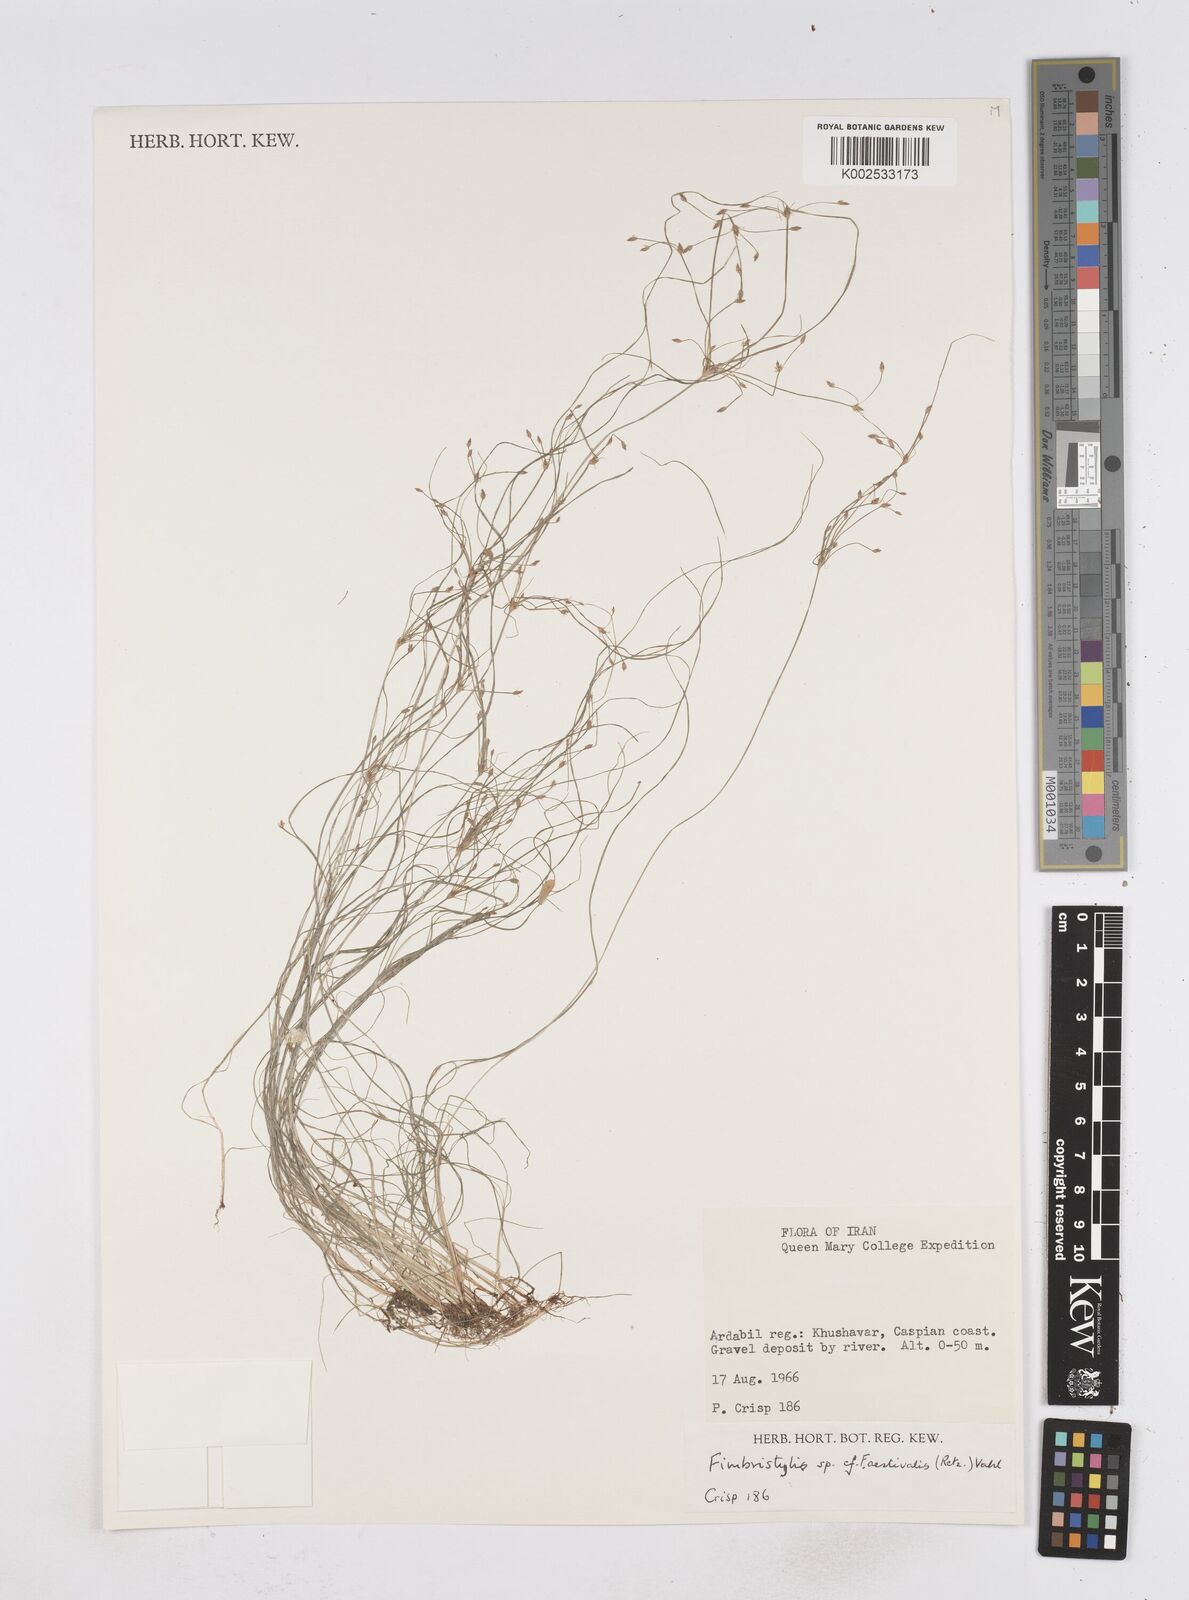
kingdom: Plantae
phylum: Tracheophyta
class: Liliopsida
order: Poales
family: Cyperaceae
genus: Fimbristylis
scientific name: Fimbristylis aestivalis
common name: Summer fimbry
